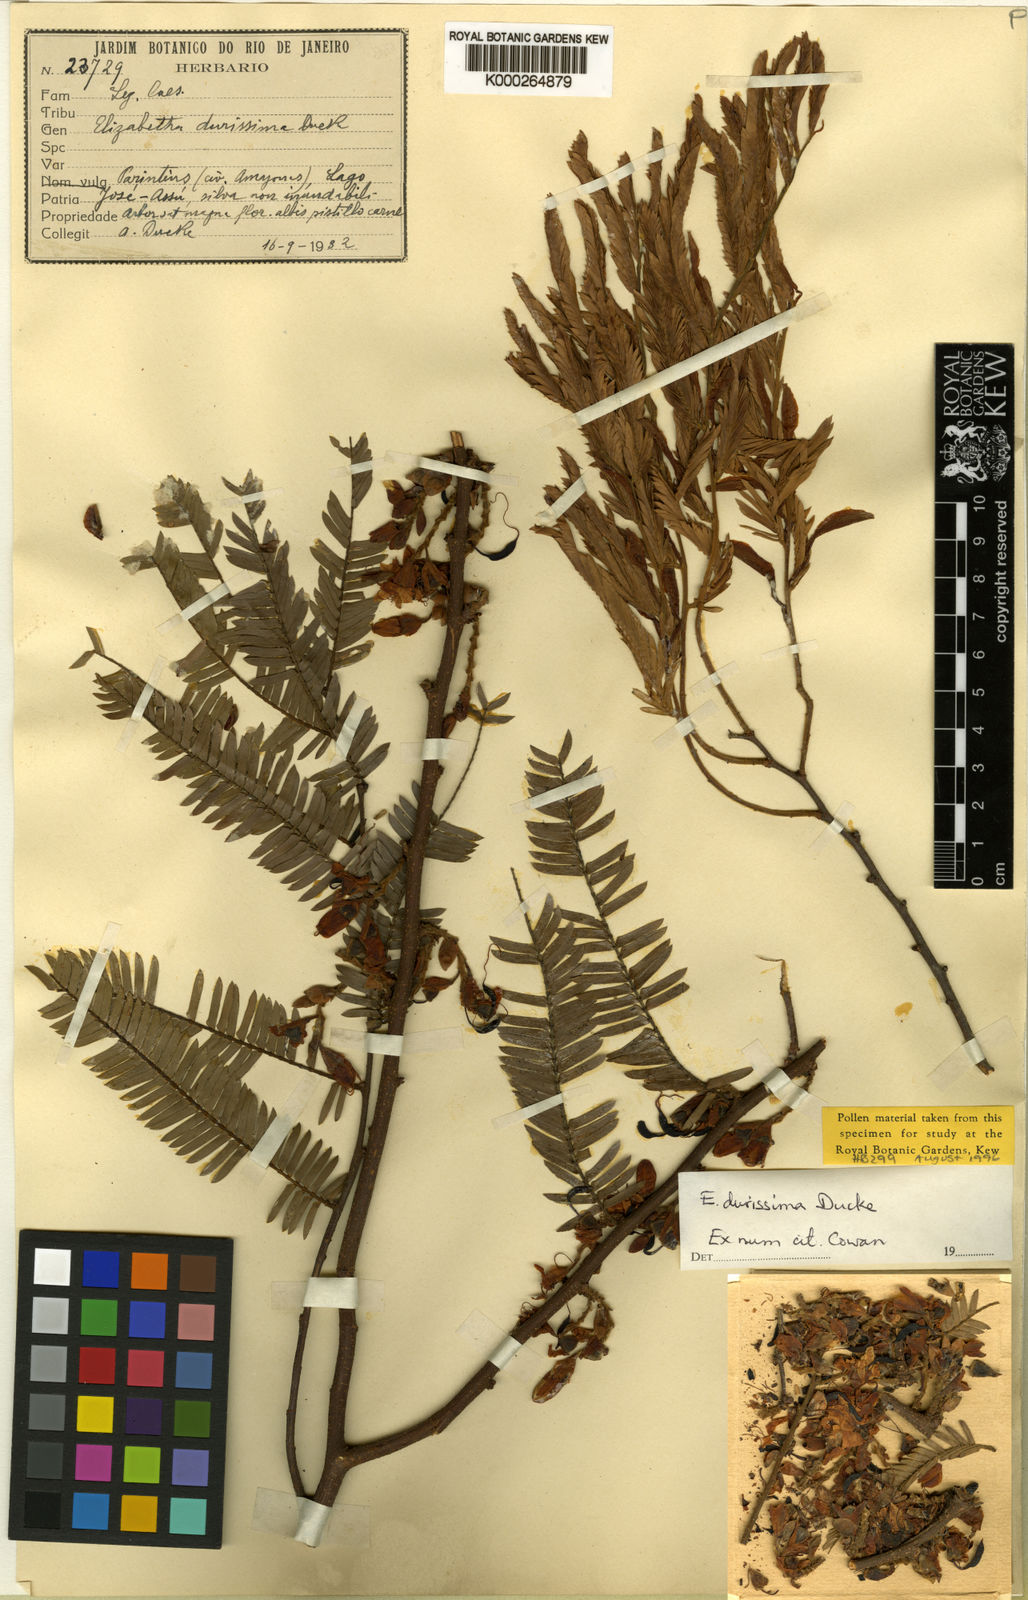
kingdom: Plantae
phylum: Tracheophyta
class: Magnoliopsida
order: Fabales
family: Fabaceae
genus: Paloue
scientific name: Paloue durissima
